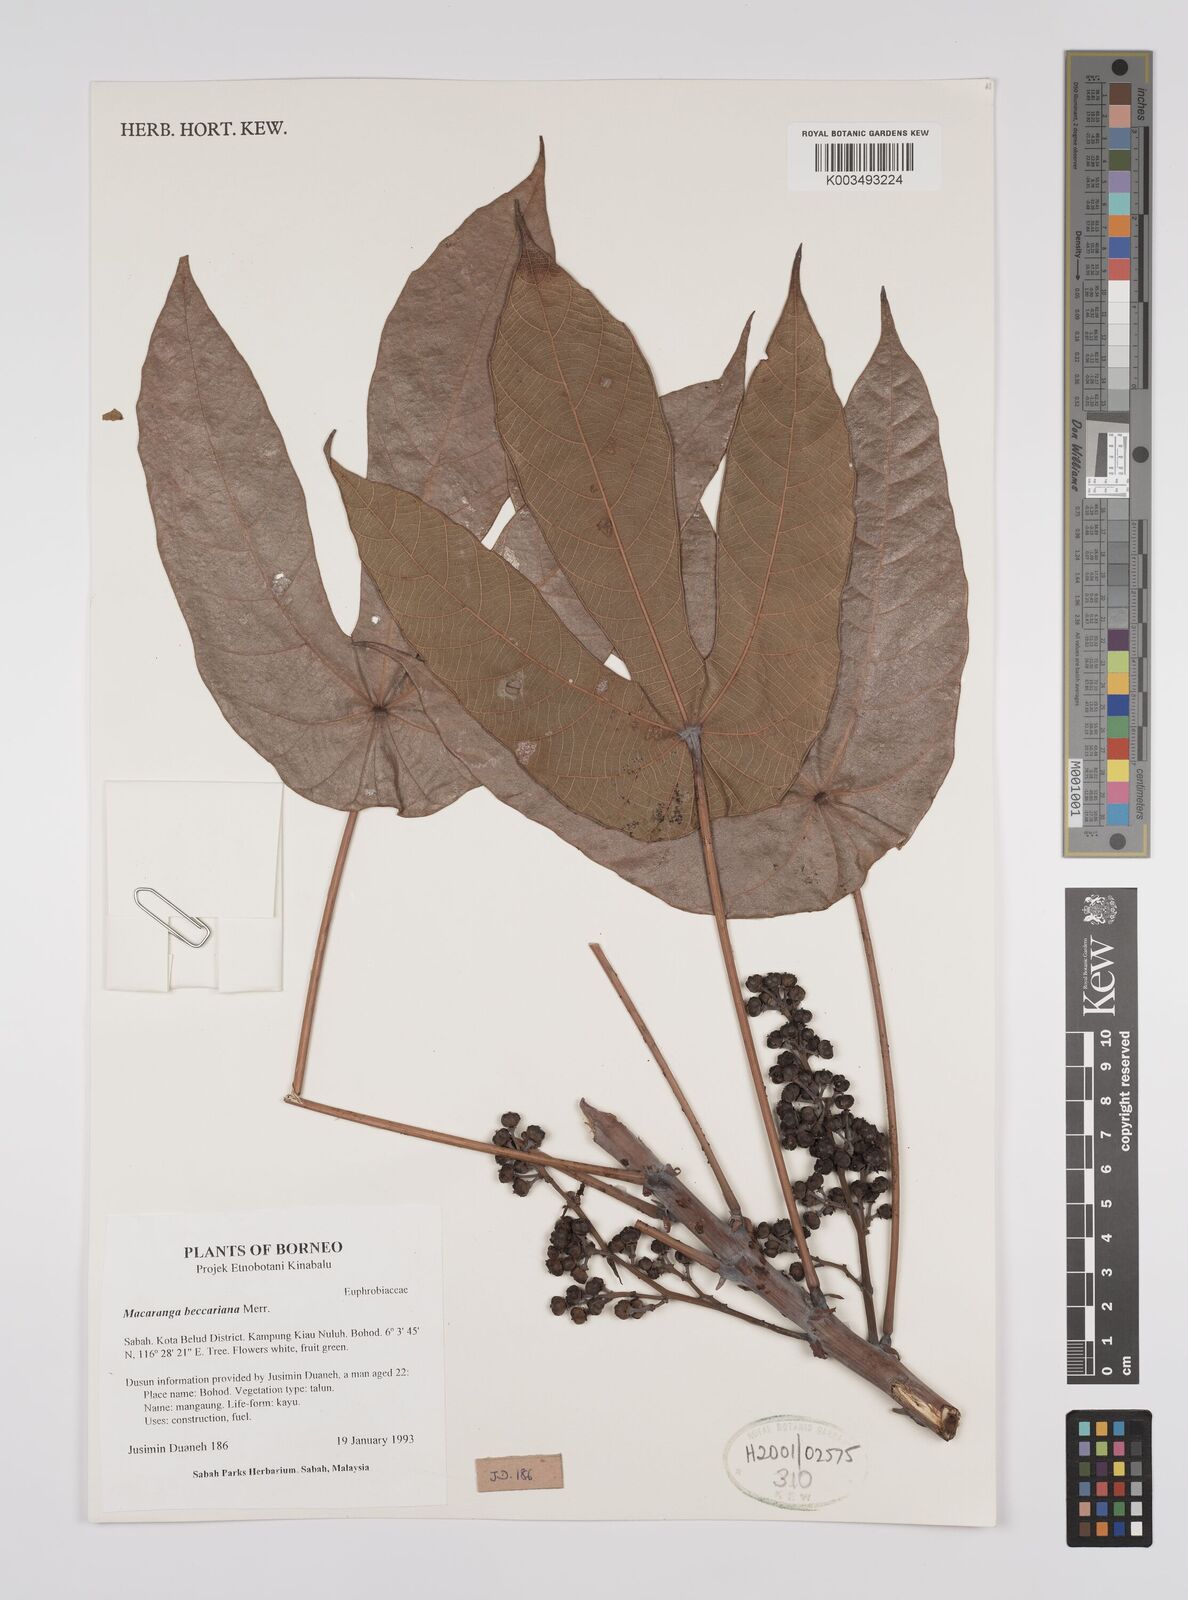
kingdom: Plantae
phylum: Tracheophyta
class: Magnoliopsida
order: Malpighiales
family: Euphorbiaceae
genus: Macaranga
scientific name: Macaranga beccariana
